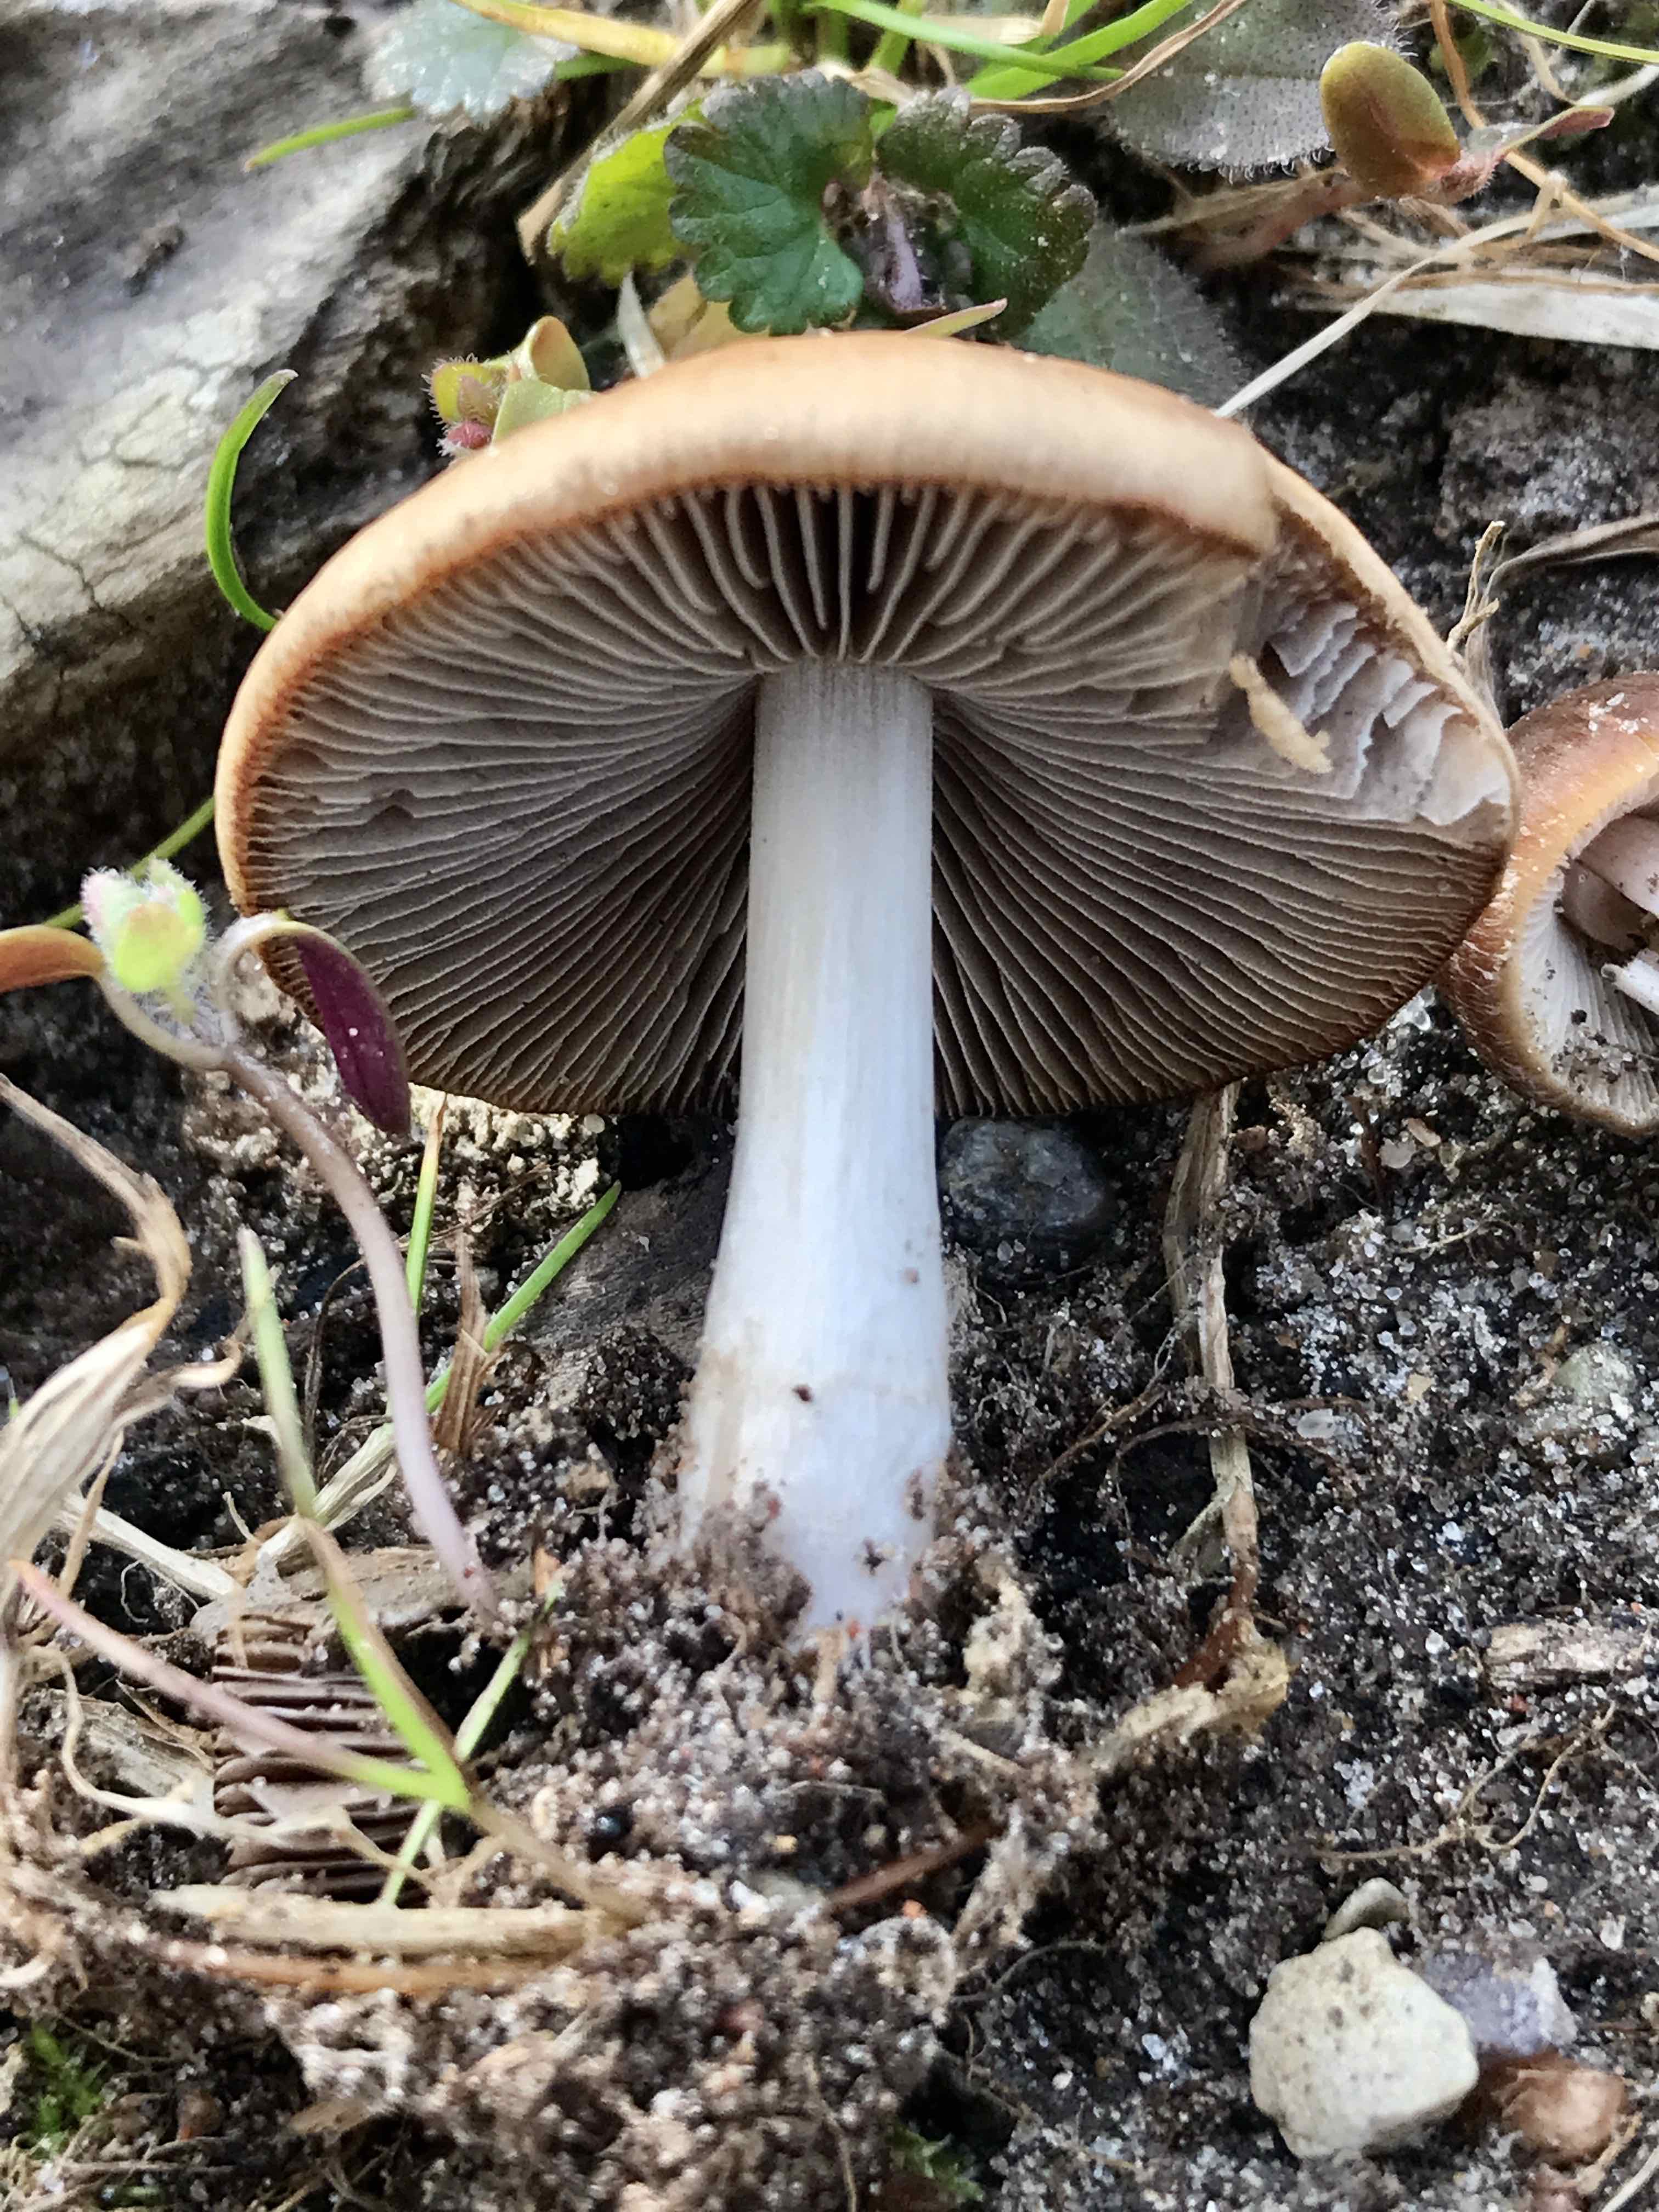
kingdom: Fungi
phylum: Basidiomycota
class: Agaricomycetes
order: Agaricales
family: Psathyrellaceae
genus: Psathyrella
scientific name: Psathyrella spadiceogrisea
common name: gråbrun mørkhat
